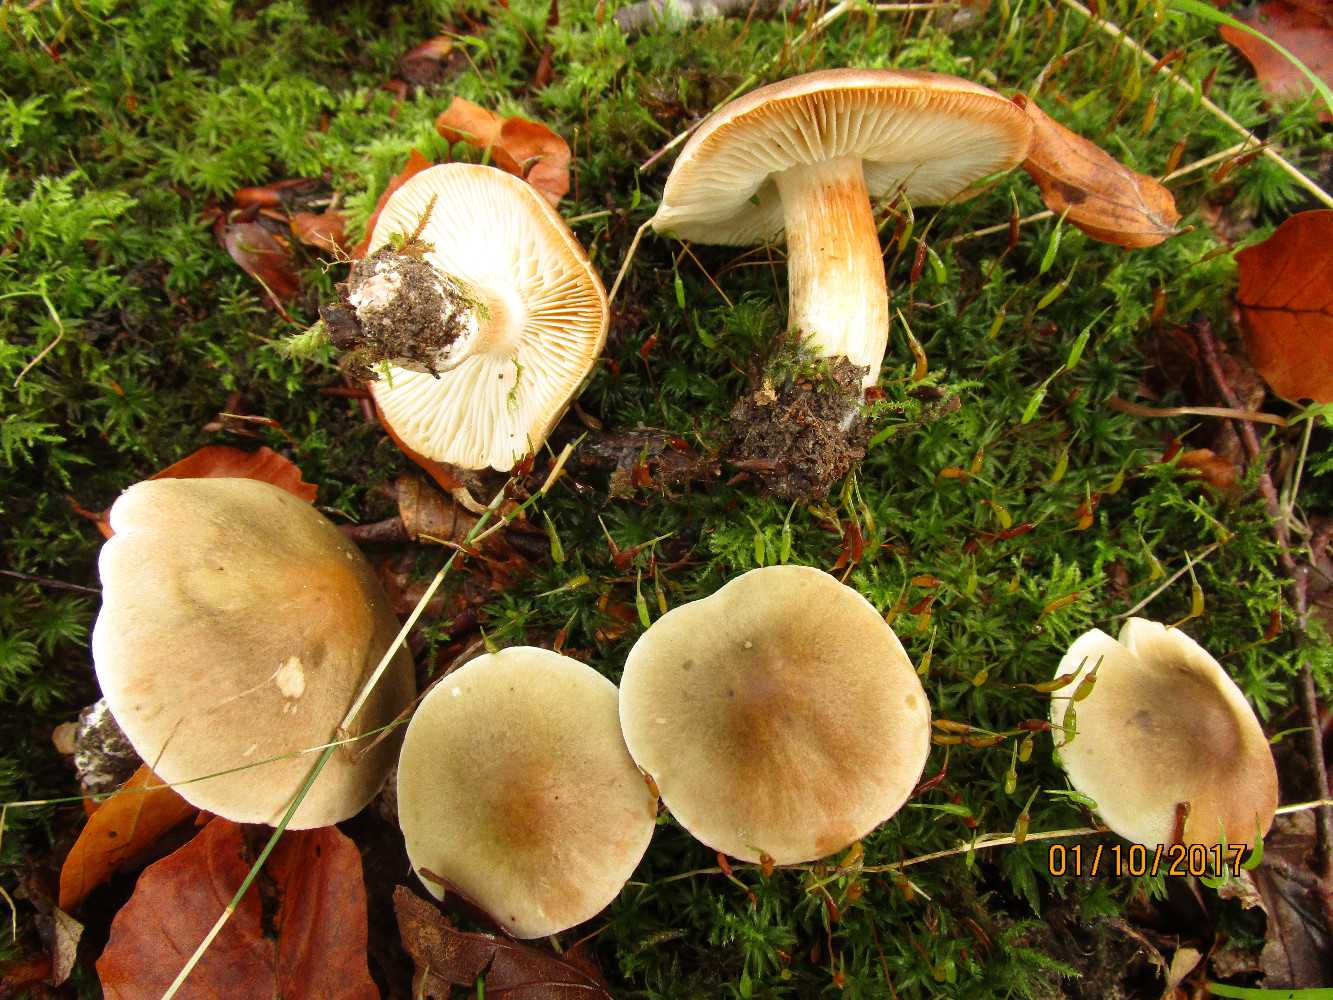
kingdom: Fungi
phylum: Basidiomycota
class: Agaricomycetes
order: Agaricales
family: Tricholomataceae
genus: Tricholoma
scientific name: Tricholoma saponaceum
